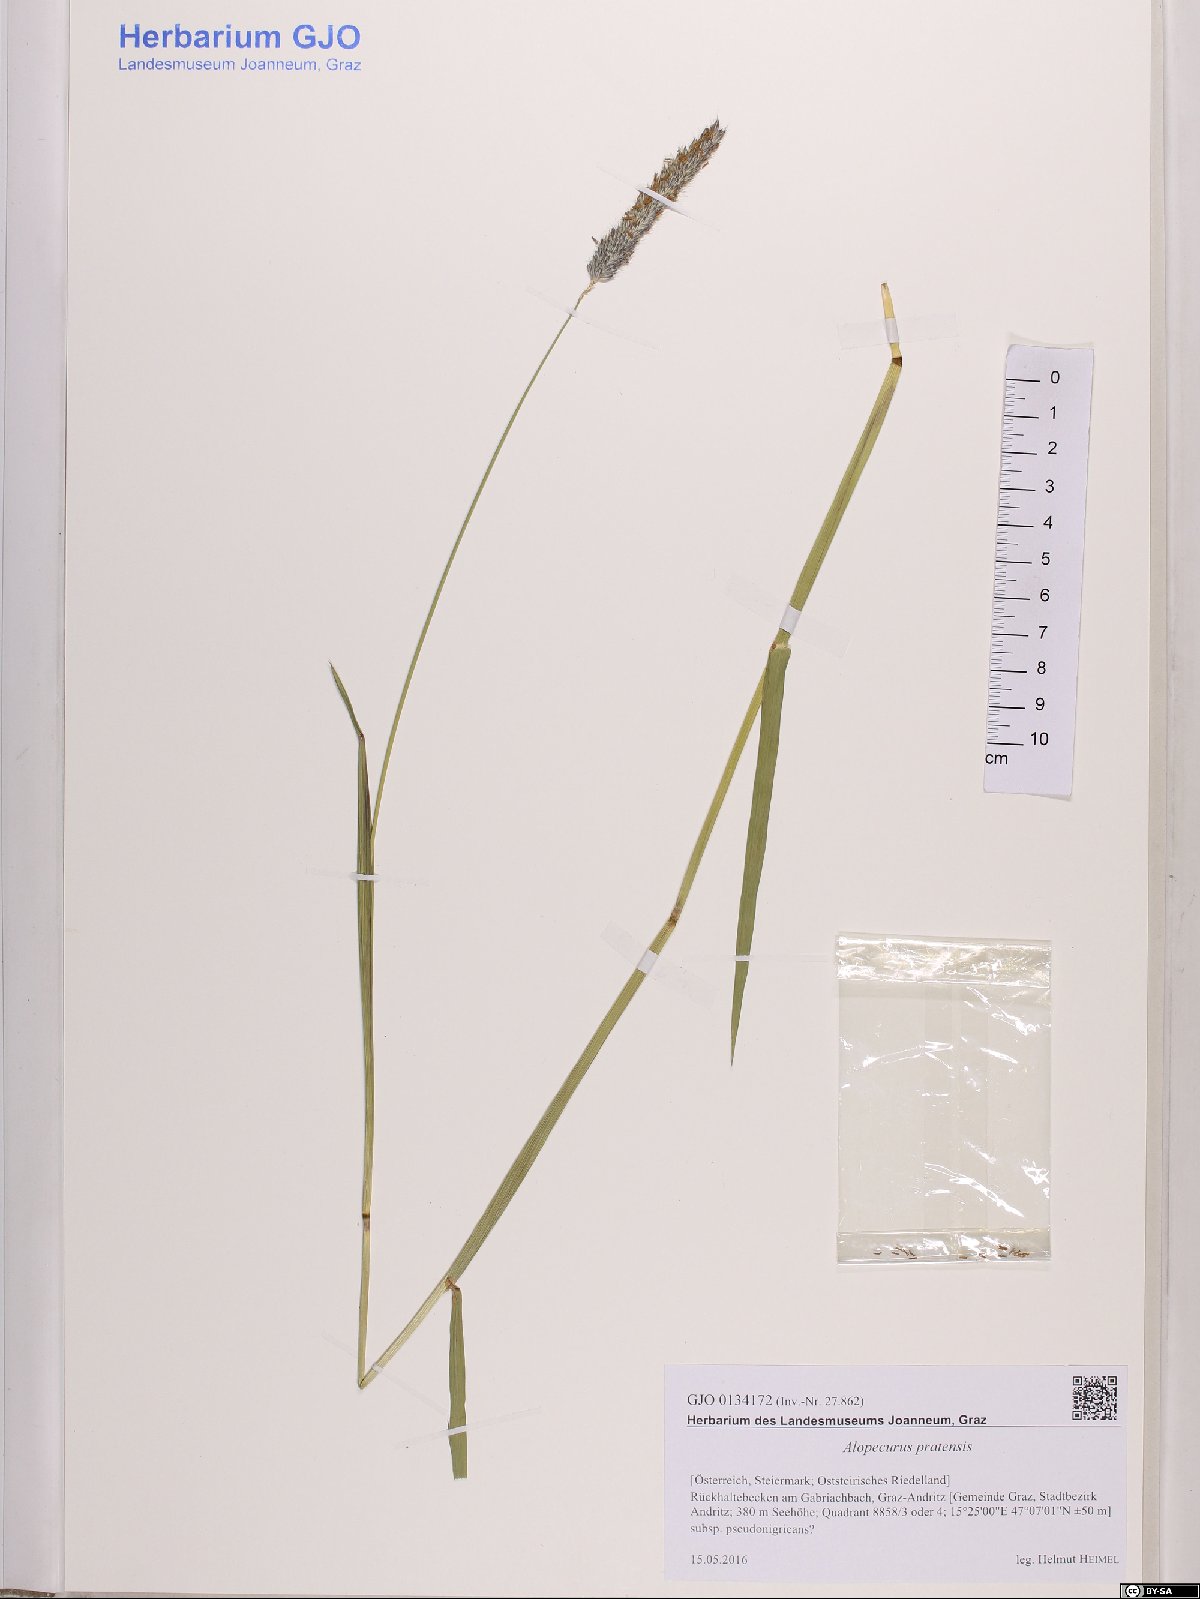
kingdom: Plantae
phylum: Tracheophyta
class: Liliopsida
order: Poales
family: Poaceae
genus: Alopecurus
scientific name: Alopecurus pratensis
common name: Meadow foxtail
